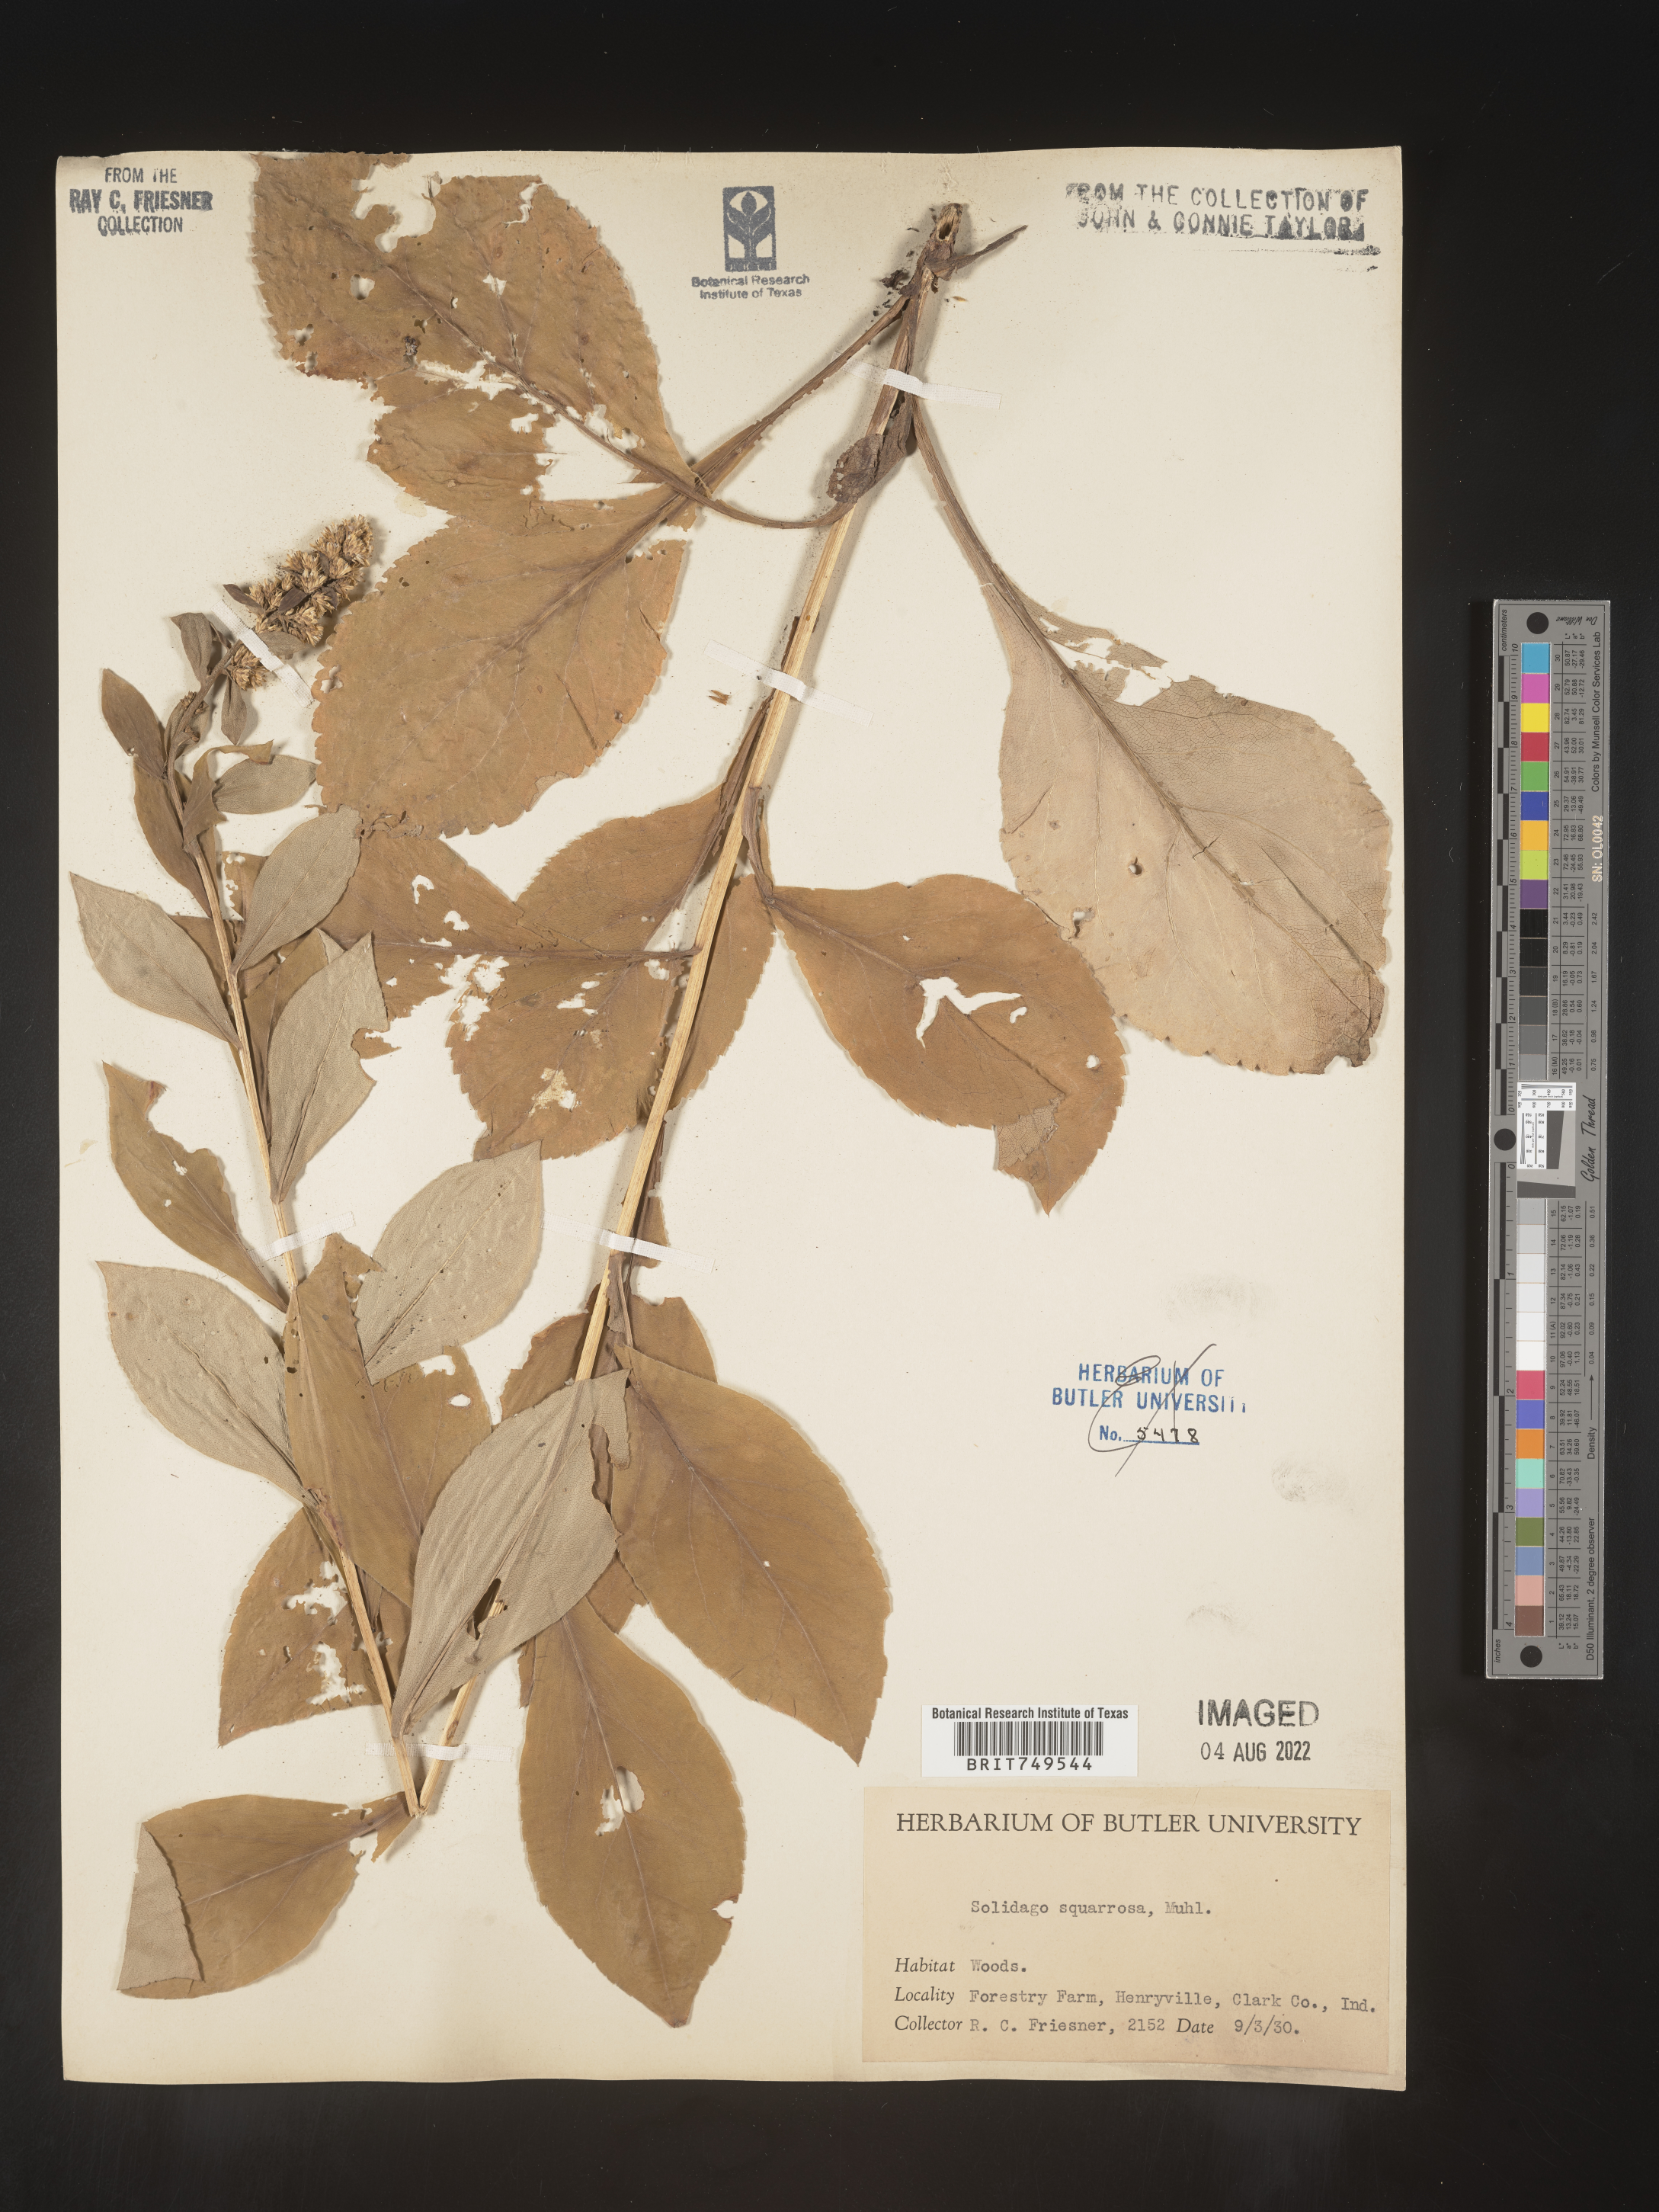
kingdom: Plantae
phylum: Tracheophyta
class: Magnoliopsida
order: Asterales
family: Asteraceae
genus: Solidago
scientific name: Solidago squarrosa
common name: Stout goldenrod
